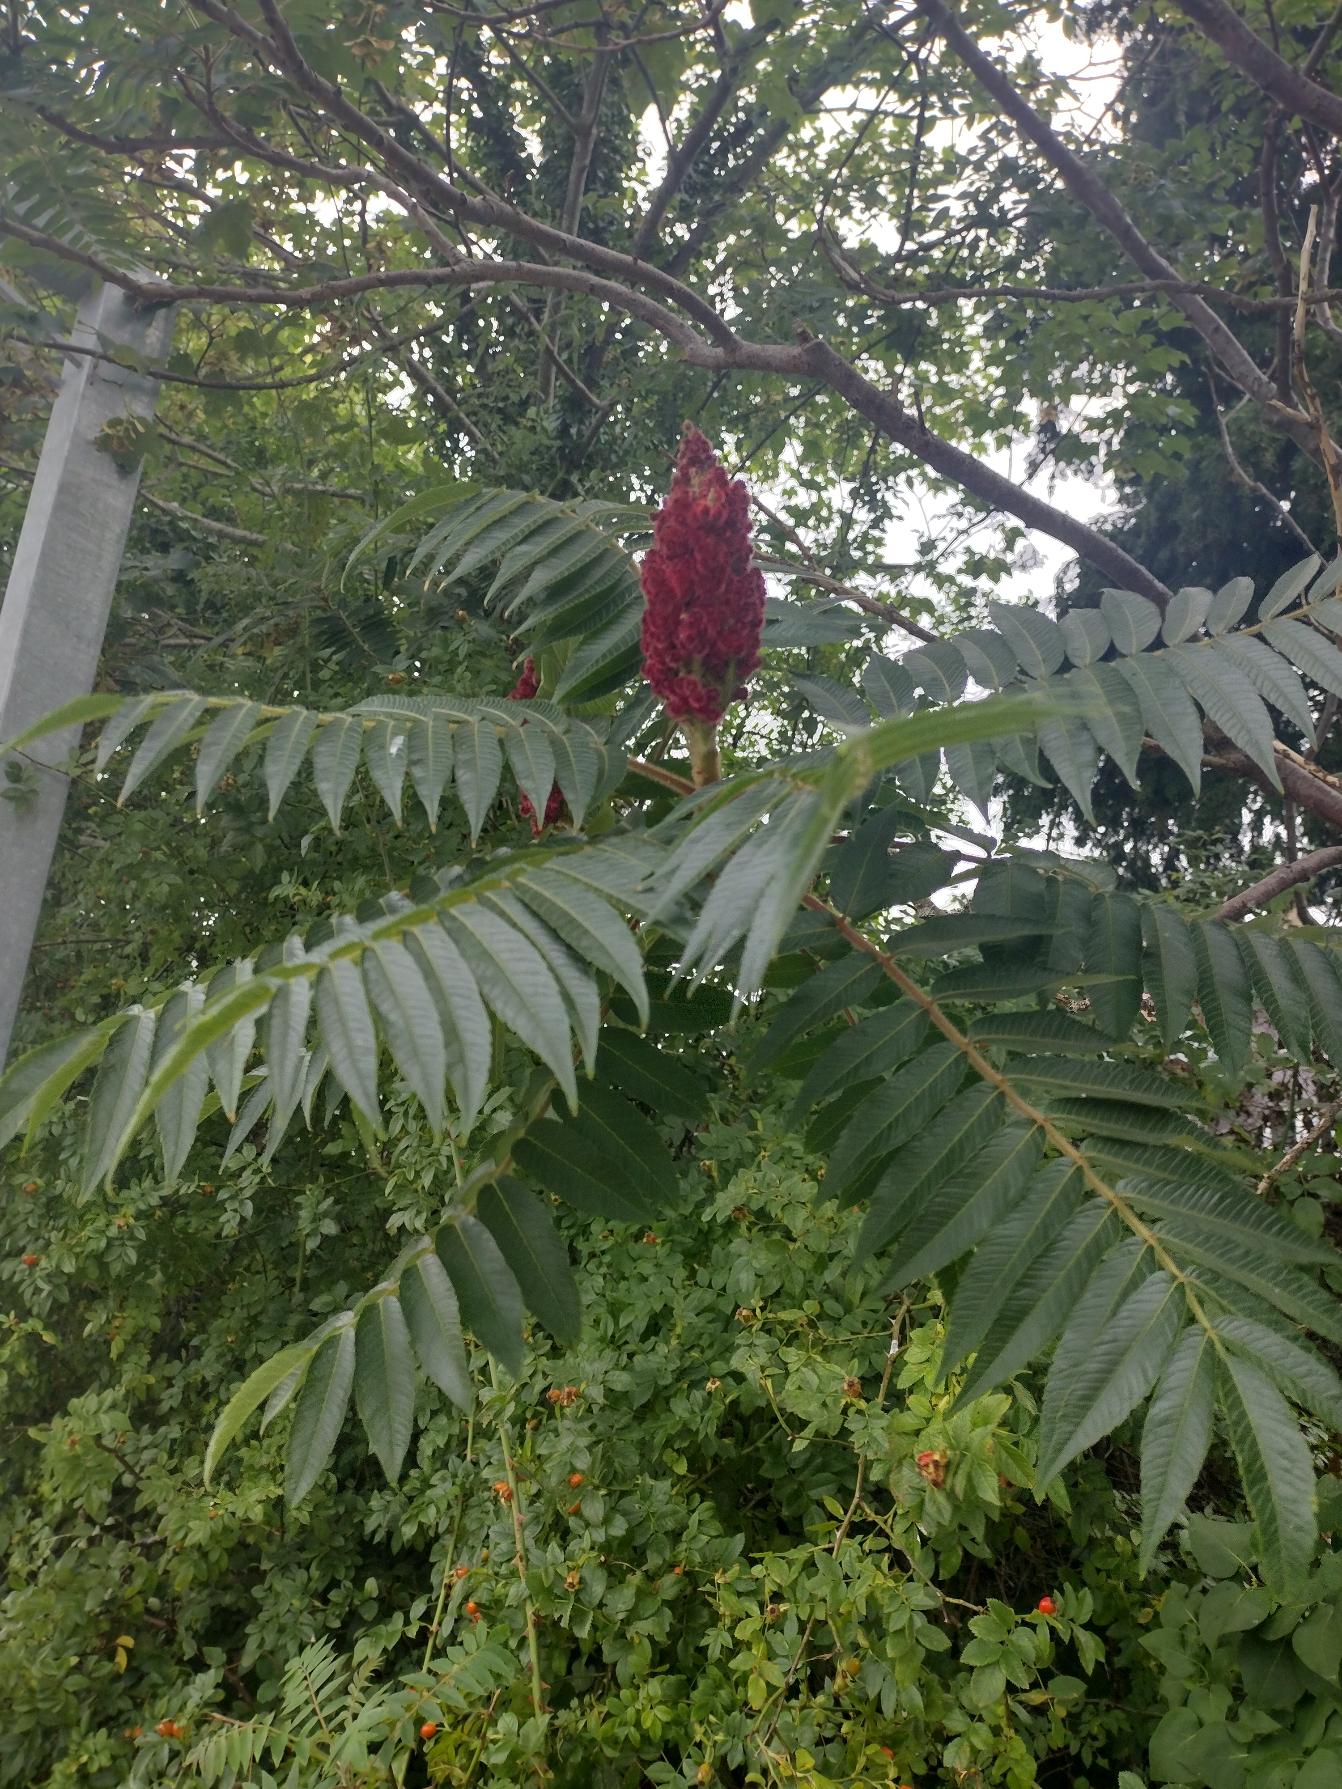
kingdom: Plantae
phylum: Tracheophyta
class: Magnoliopsida
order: Sapindales
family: Anacardiaceae
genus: Rhus
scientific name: Rhus typhina
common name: Hjortetaktræ
